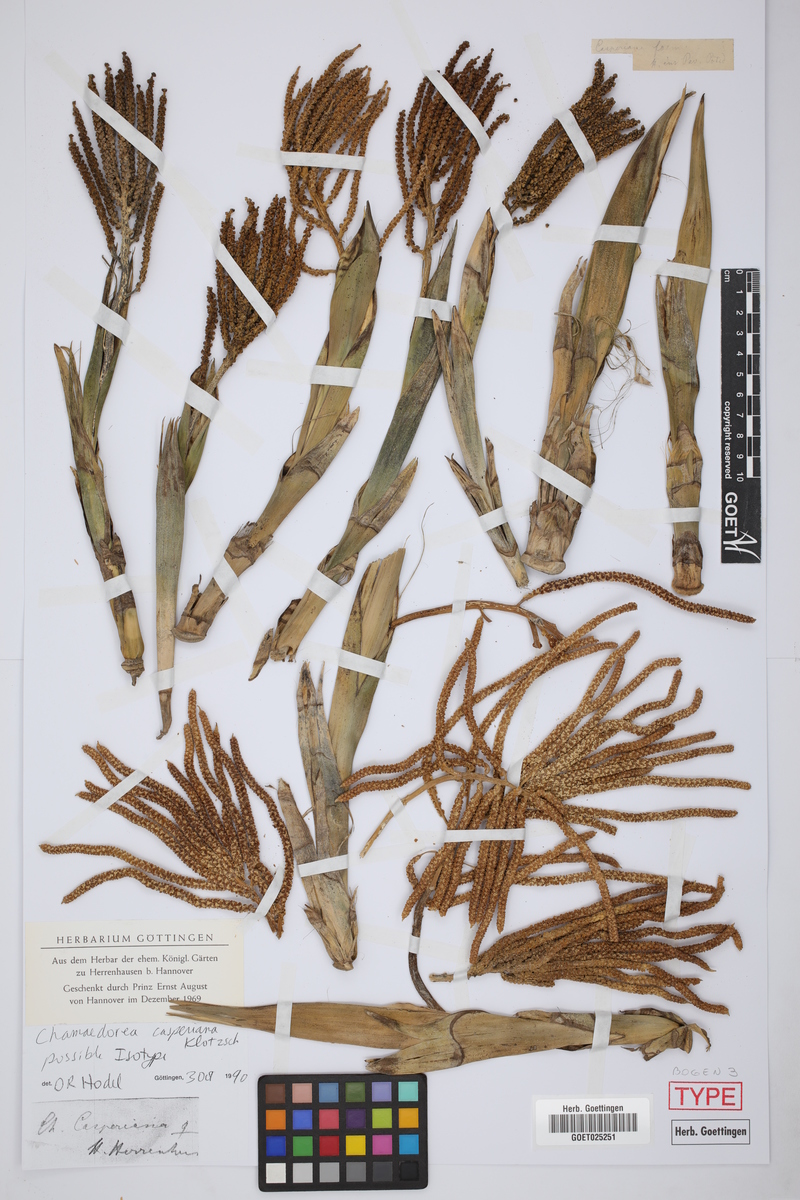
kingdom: Plantae
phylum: Tracheophyta
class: Liliopsida
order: Arecales
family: Arecaceae
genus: Chamaedorea
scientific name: Chamaedorea tepejilote
